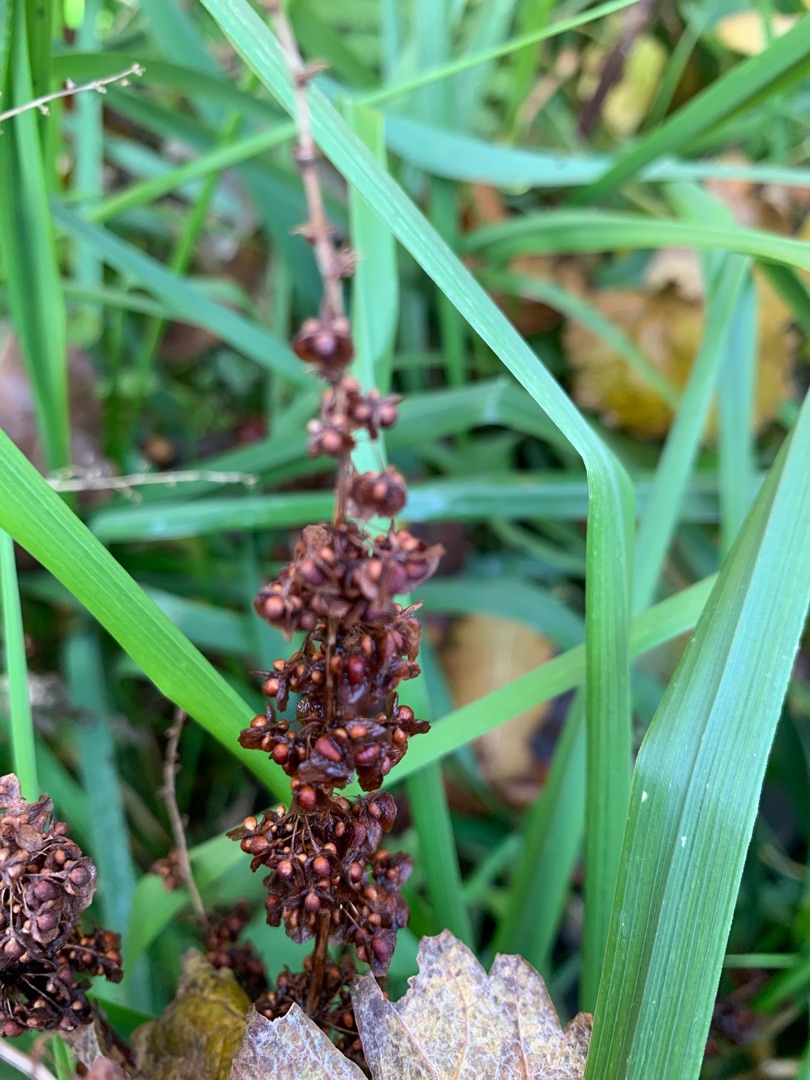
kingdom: Plantae
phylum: Tracheophyta
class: Magnoliopsida
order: Caryophyllales
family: Polygonaceae
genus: Rumex
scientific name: Rumex crispus
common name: Kruset skræppe
